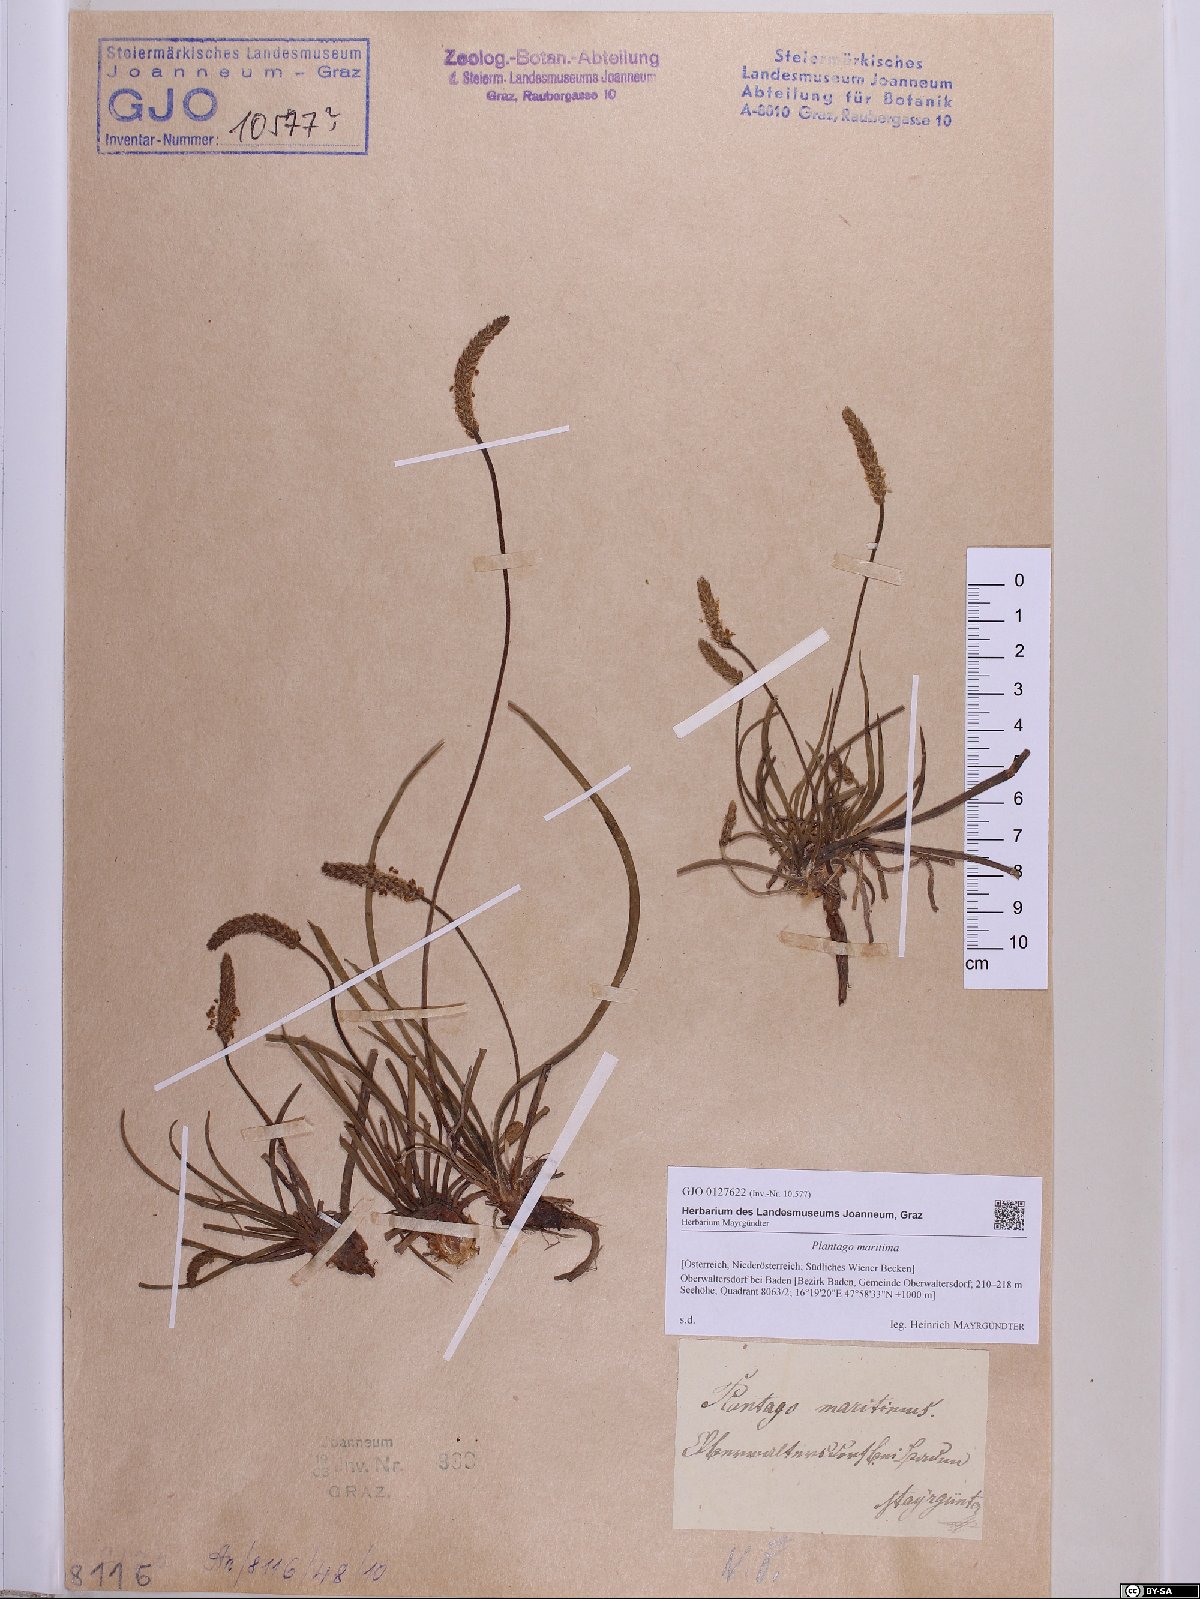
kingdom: Plantae
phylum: Tracheophyta
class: Magnoliopsida
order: Lamiales
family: Plantaginaceae
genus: Plantago
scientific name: Plantago maritima
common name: Sea plantain
